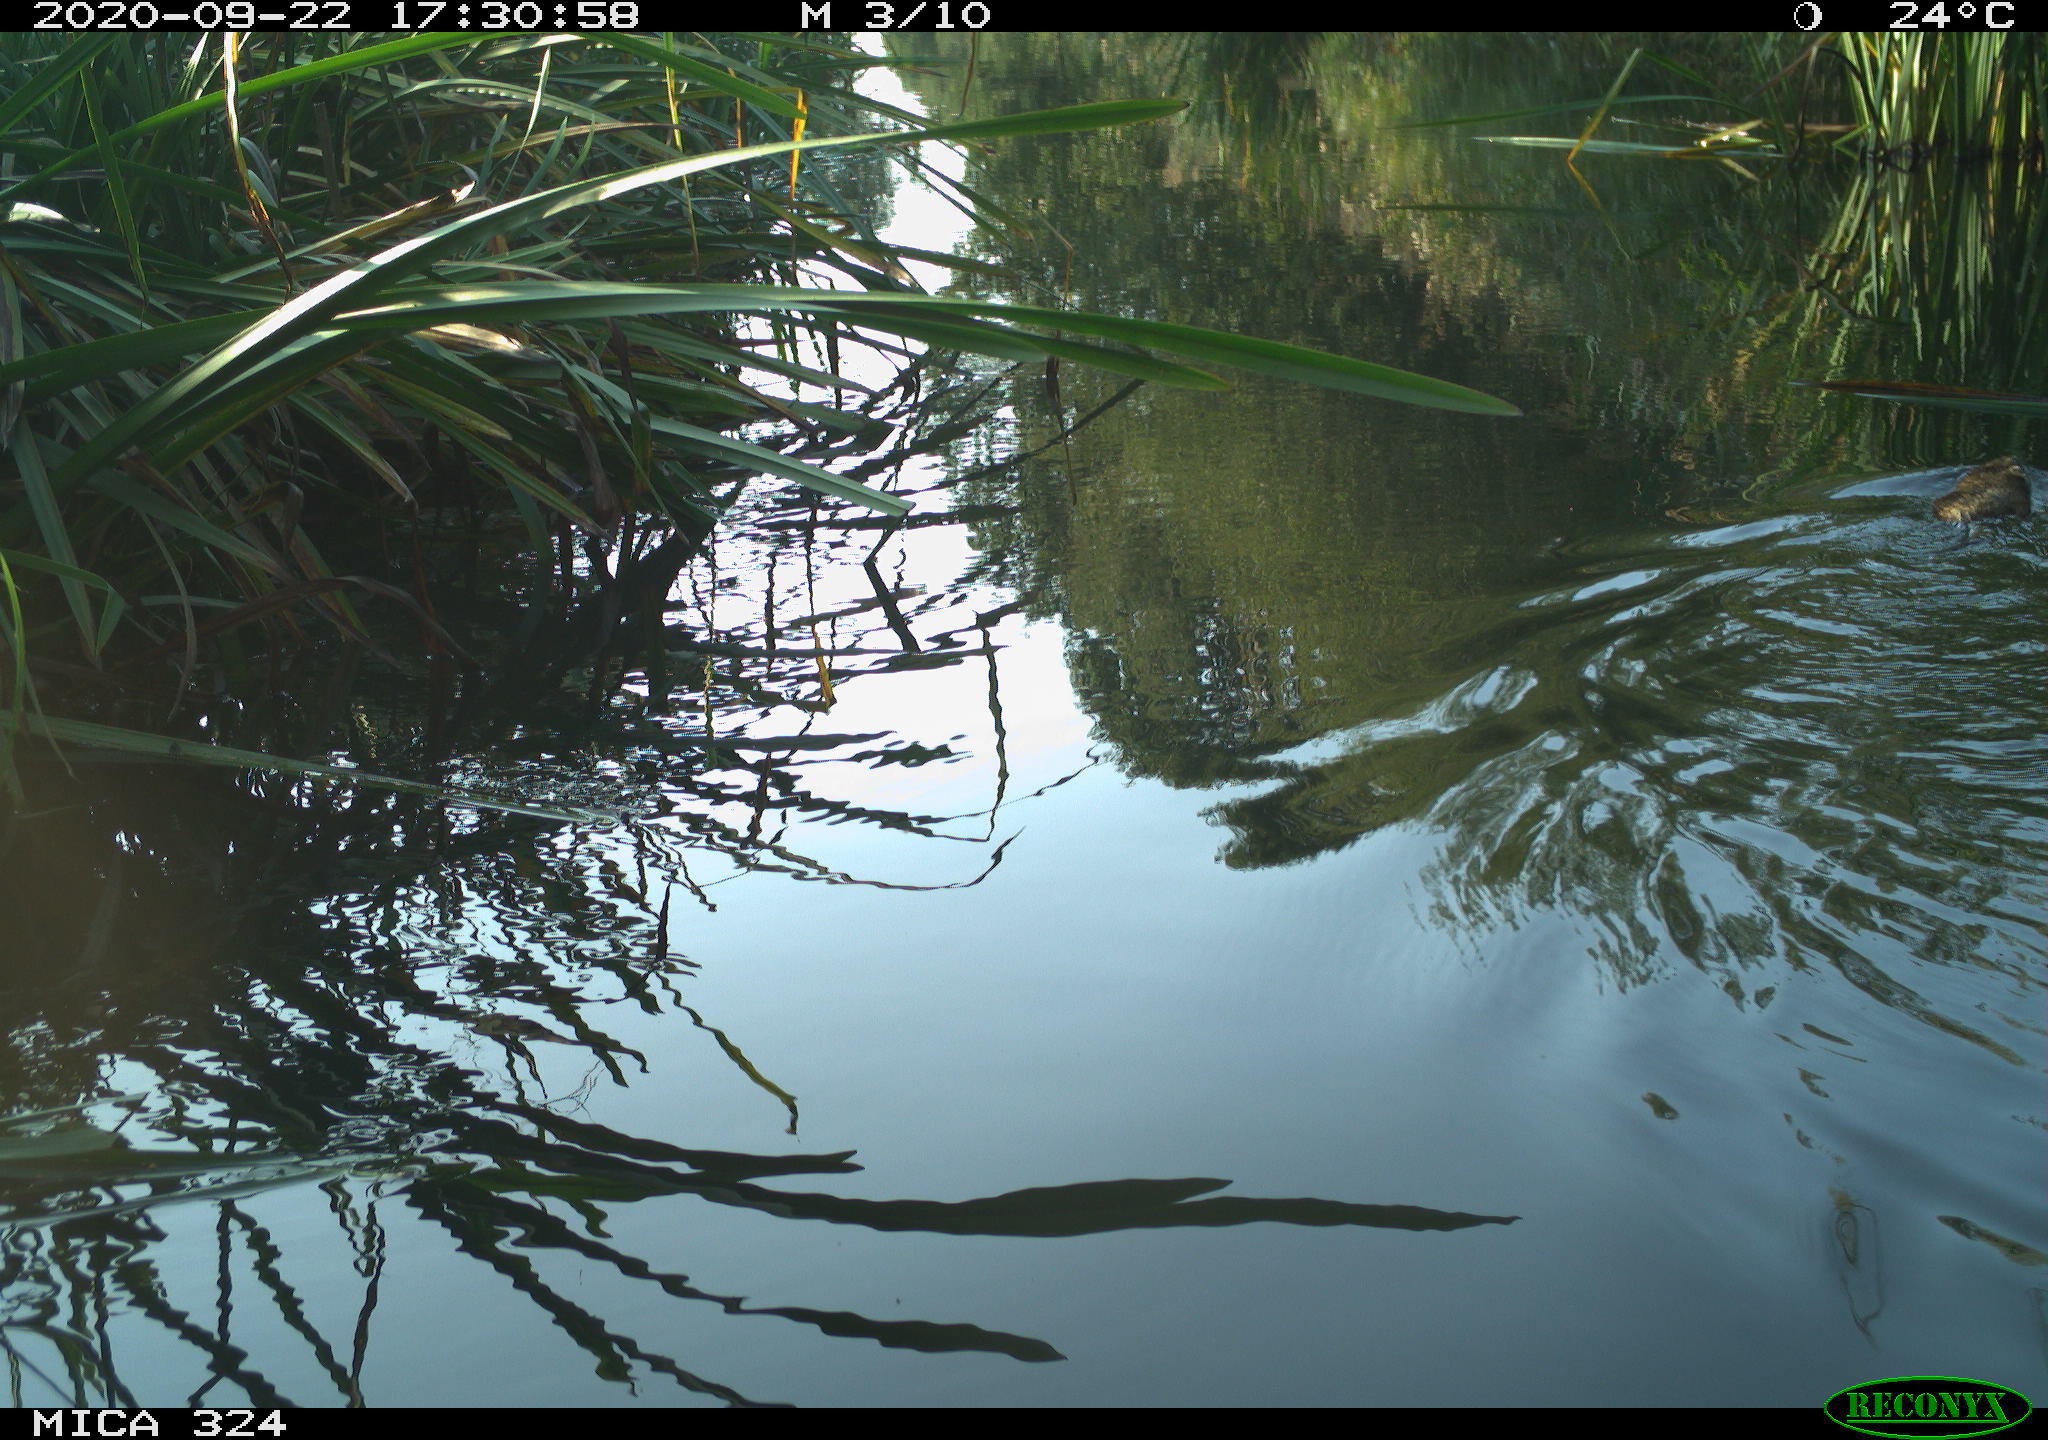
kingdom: Animalia
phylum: Chordata
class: Mammalia
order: Rodentia
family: Cricetidae
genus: Ondatra
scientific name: Ondatra zibethicus
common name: Muskrat
